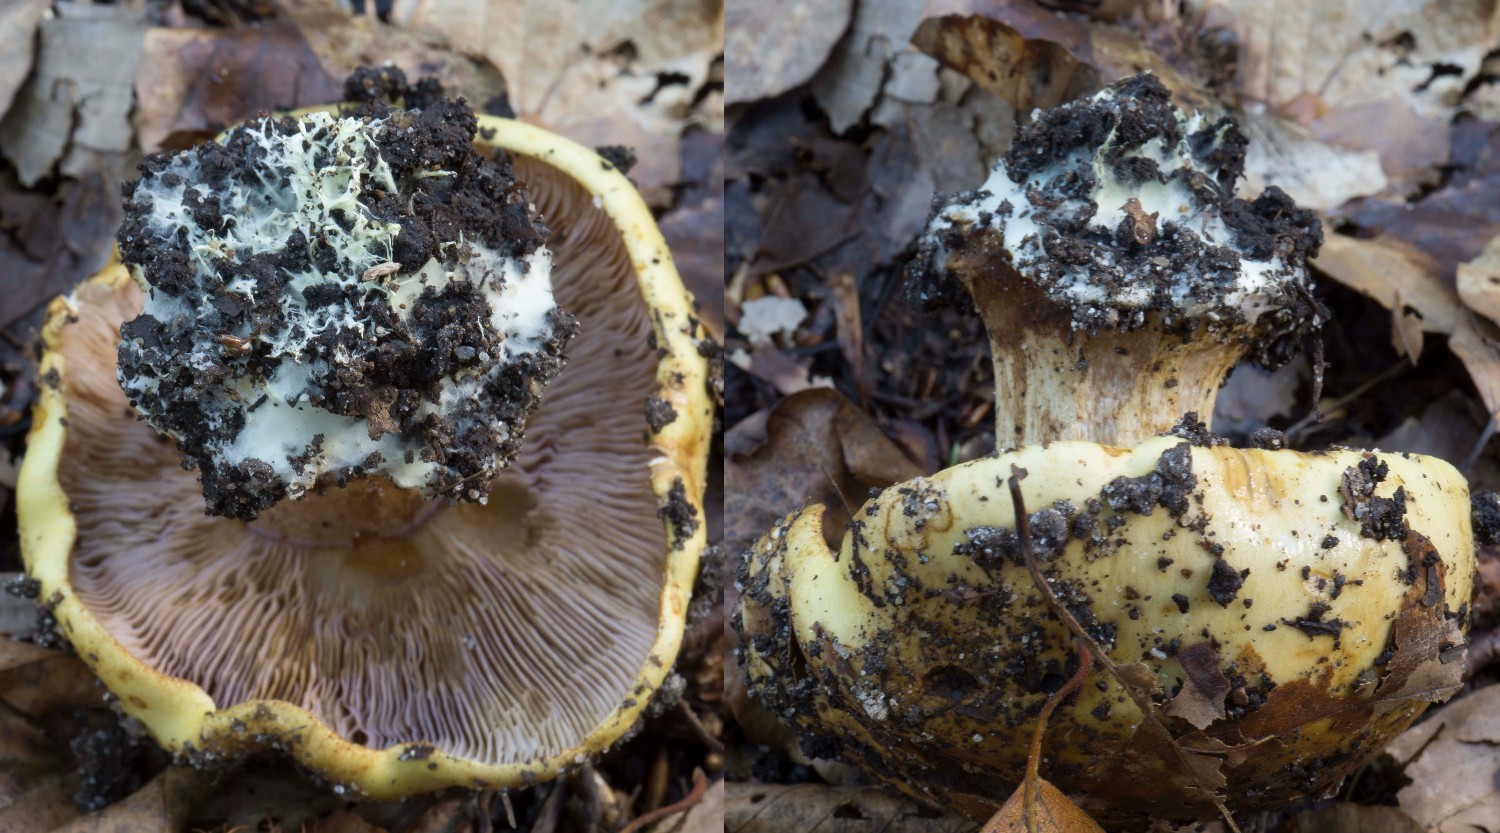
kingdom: Fungi
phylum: Basidiomycota
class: Agaricomycetes
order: Agaricales
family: Cortinariaceae
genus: Calonarius
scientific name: Calonarius callochrous
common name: lillabladet slørhat
